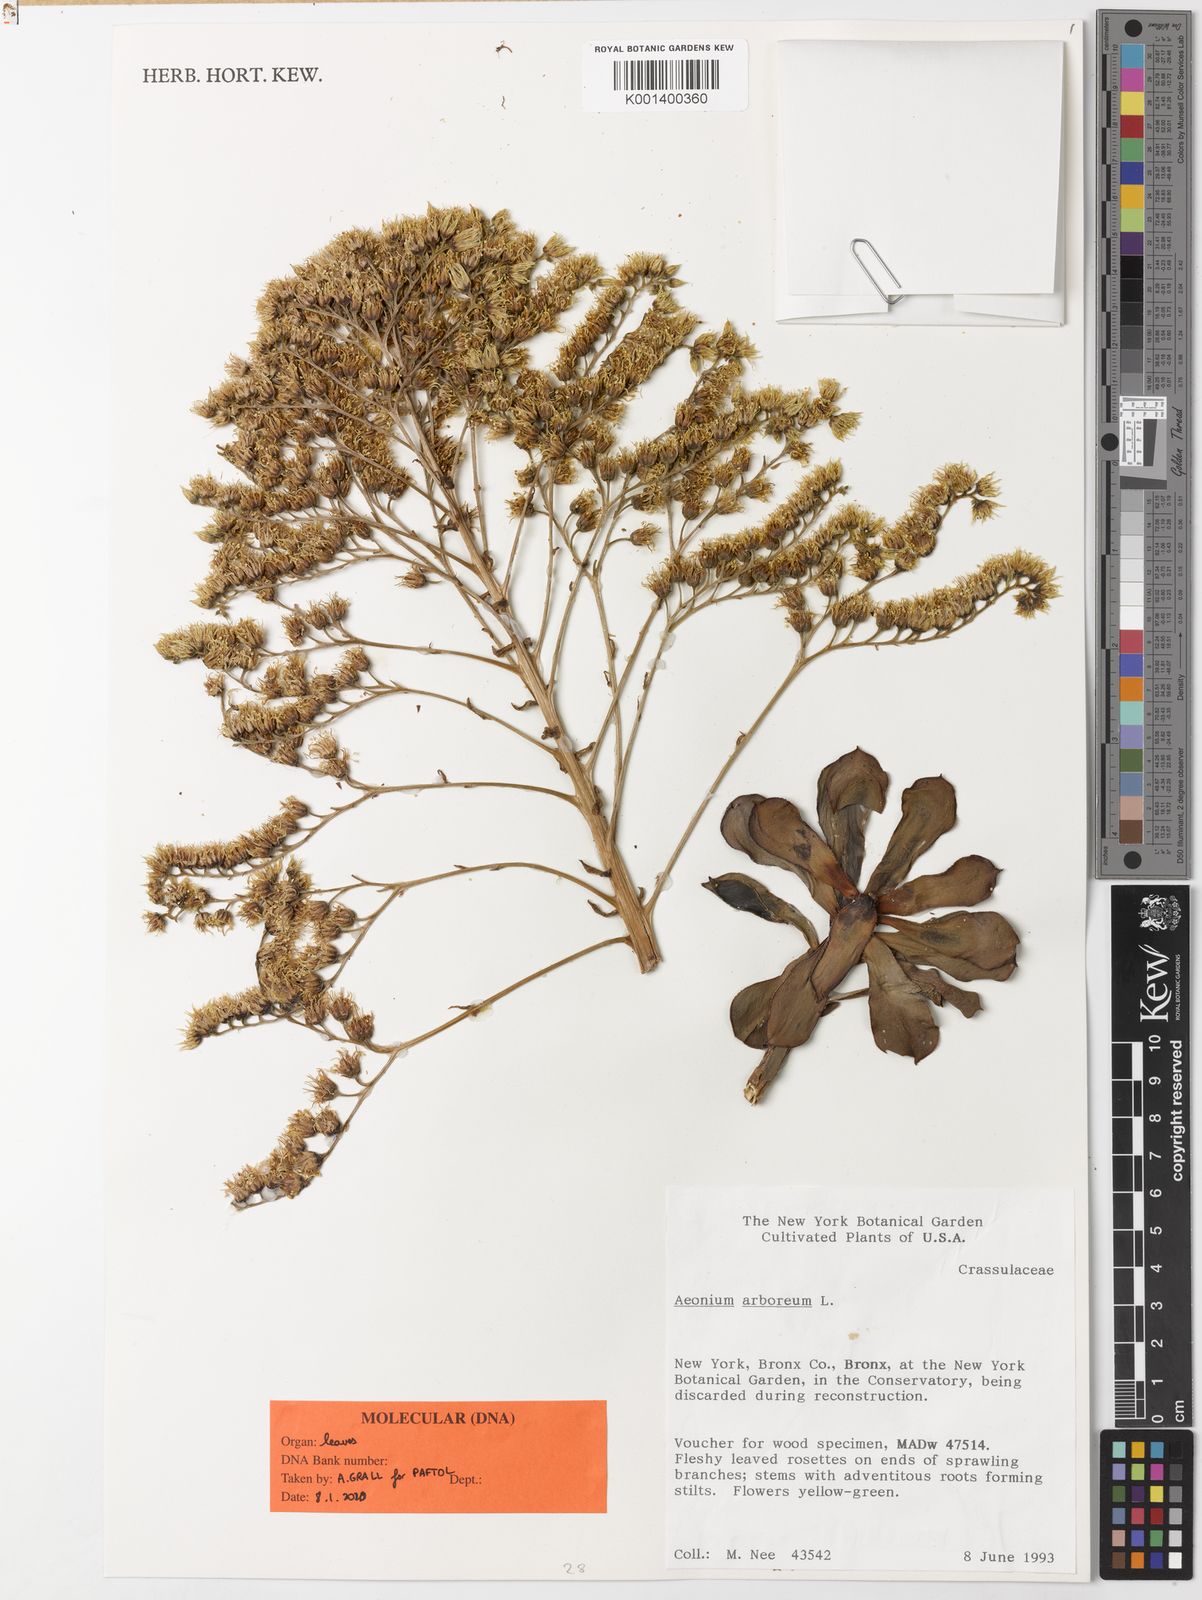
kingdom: Plantae
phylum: Tracheophyta
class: Magnoliopsida
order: Saxifragales
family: Crassulaceae
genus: Aeonium
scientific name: Aeonium arboreum
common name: Tree aeonium
